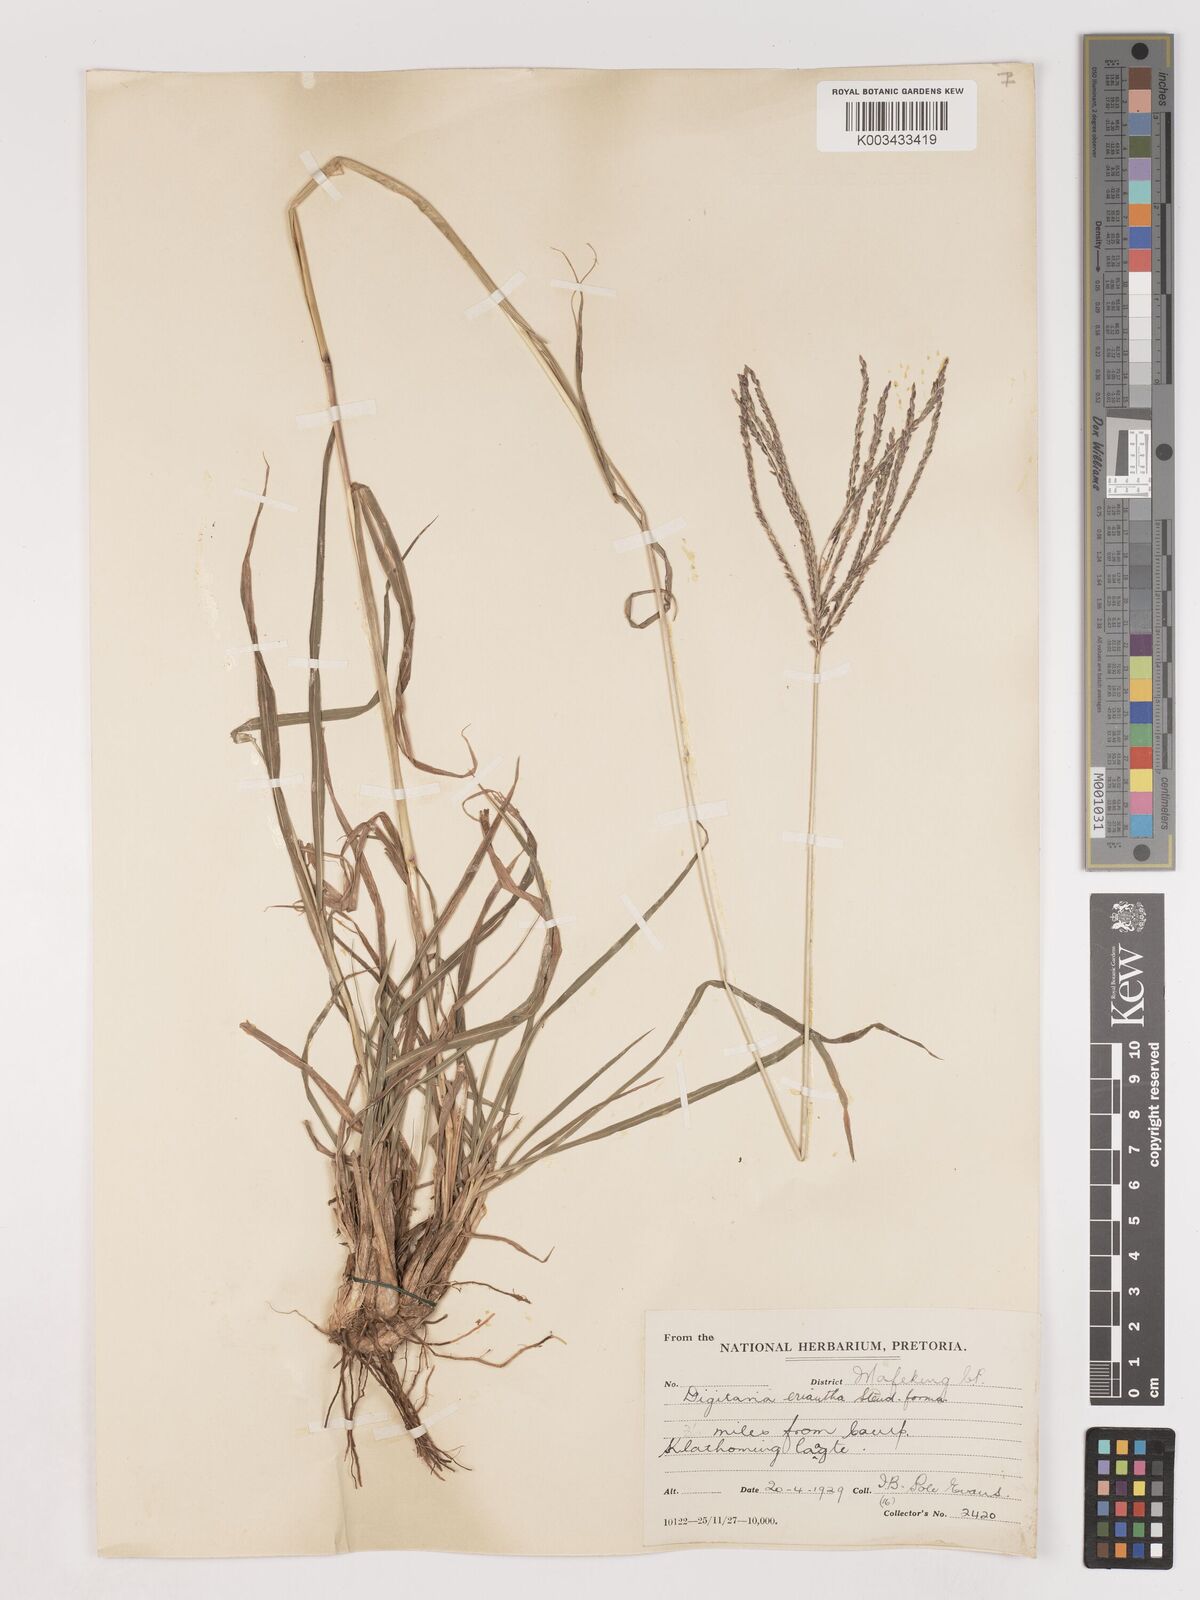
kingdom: Plantae
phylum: Tracheophyta
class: Liliopsida
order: Poales
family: Poaceae
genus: Digitaria
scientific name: Digitaria eriantha
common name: Digitgrass
